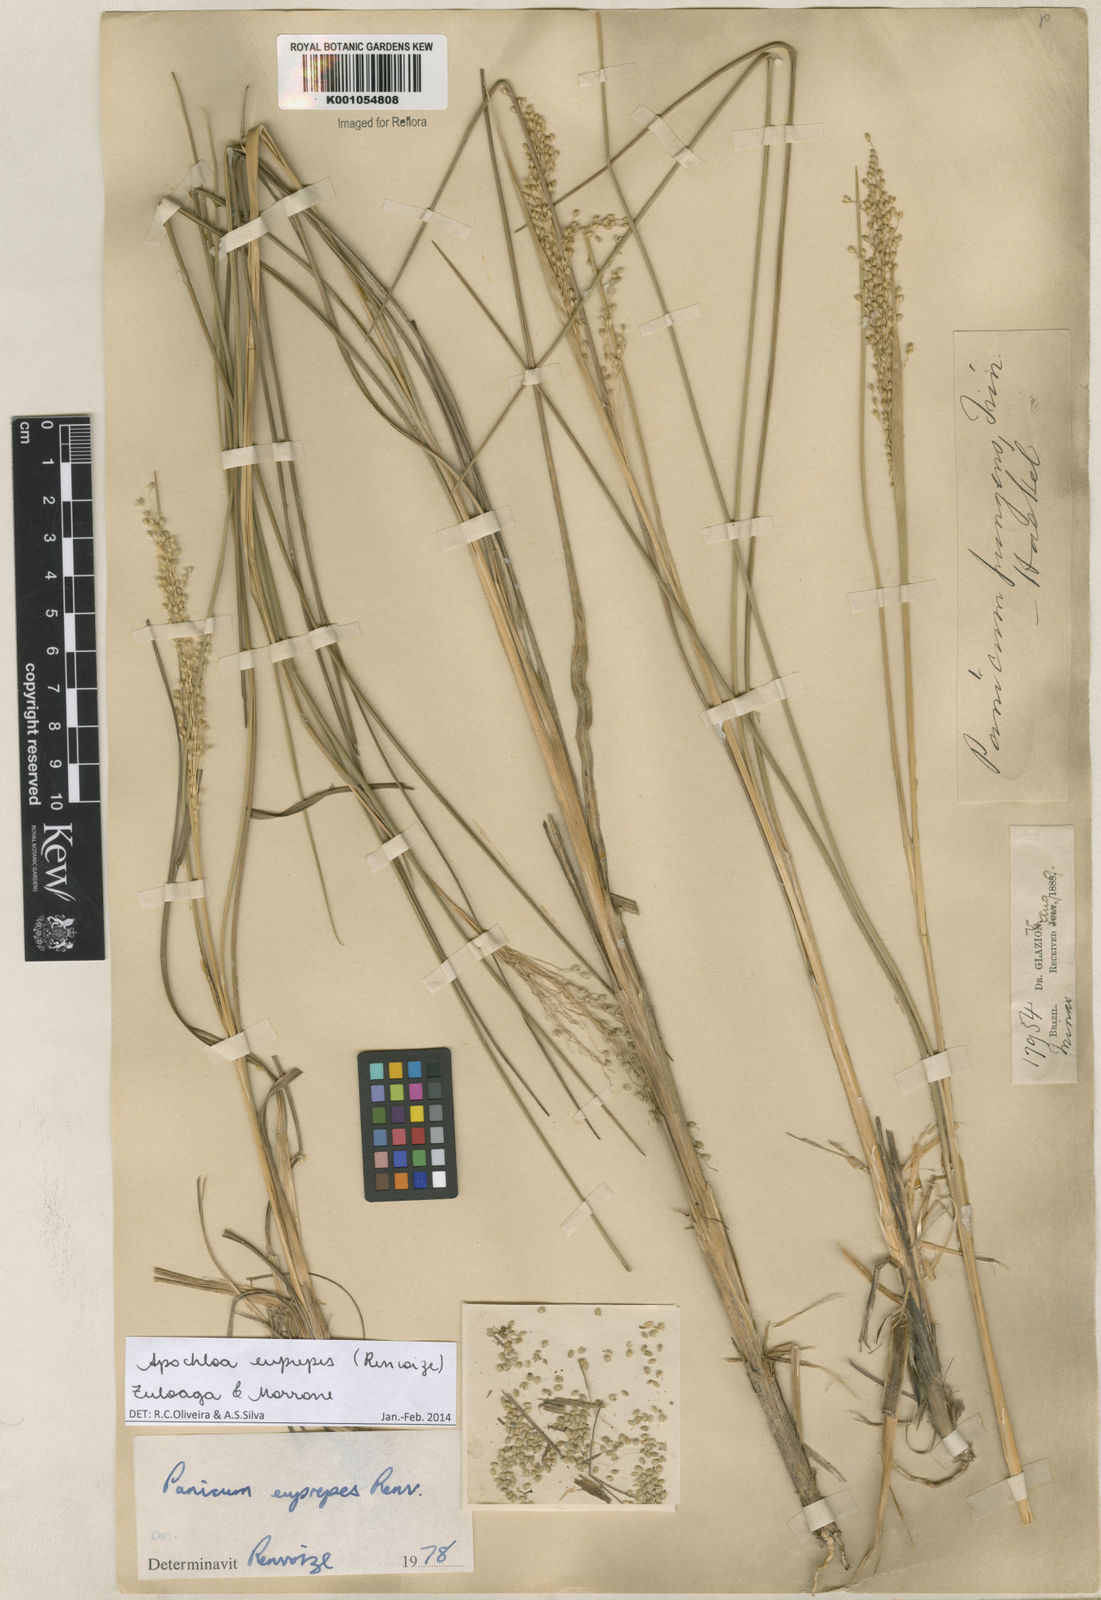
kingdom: Plantae
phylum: Tracheophyta
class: Liliopsida
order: Poales
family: Poaceae
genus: Apochloa
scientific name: Apochloa euprepes
